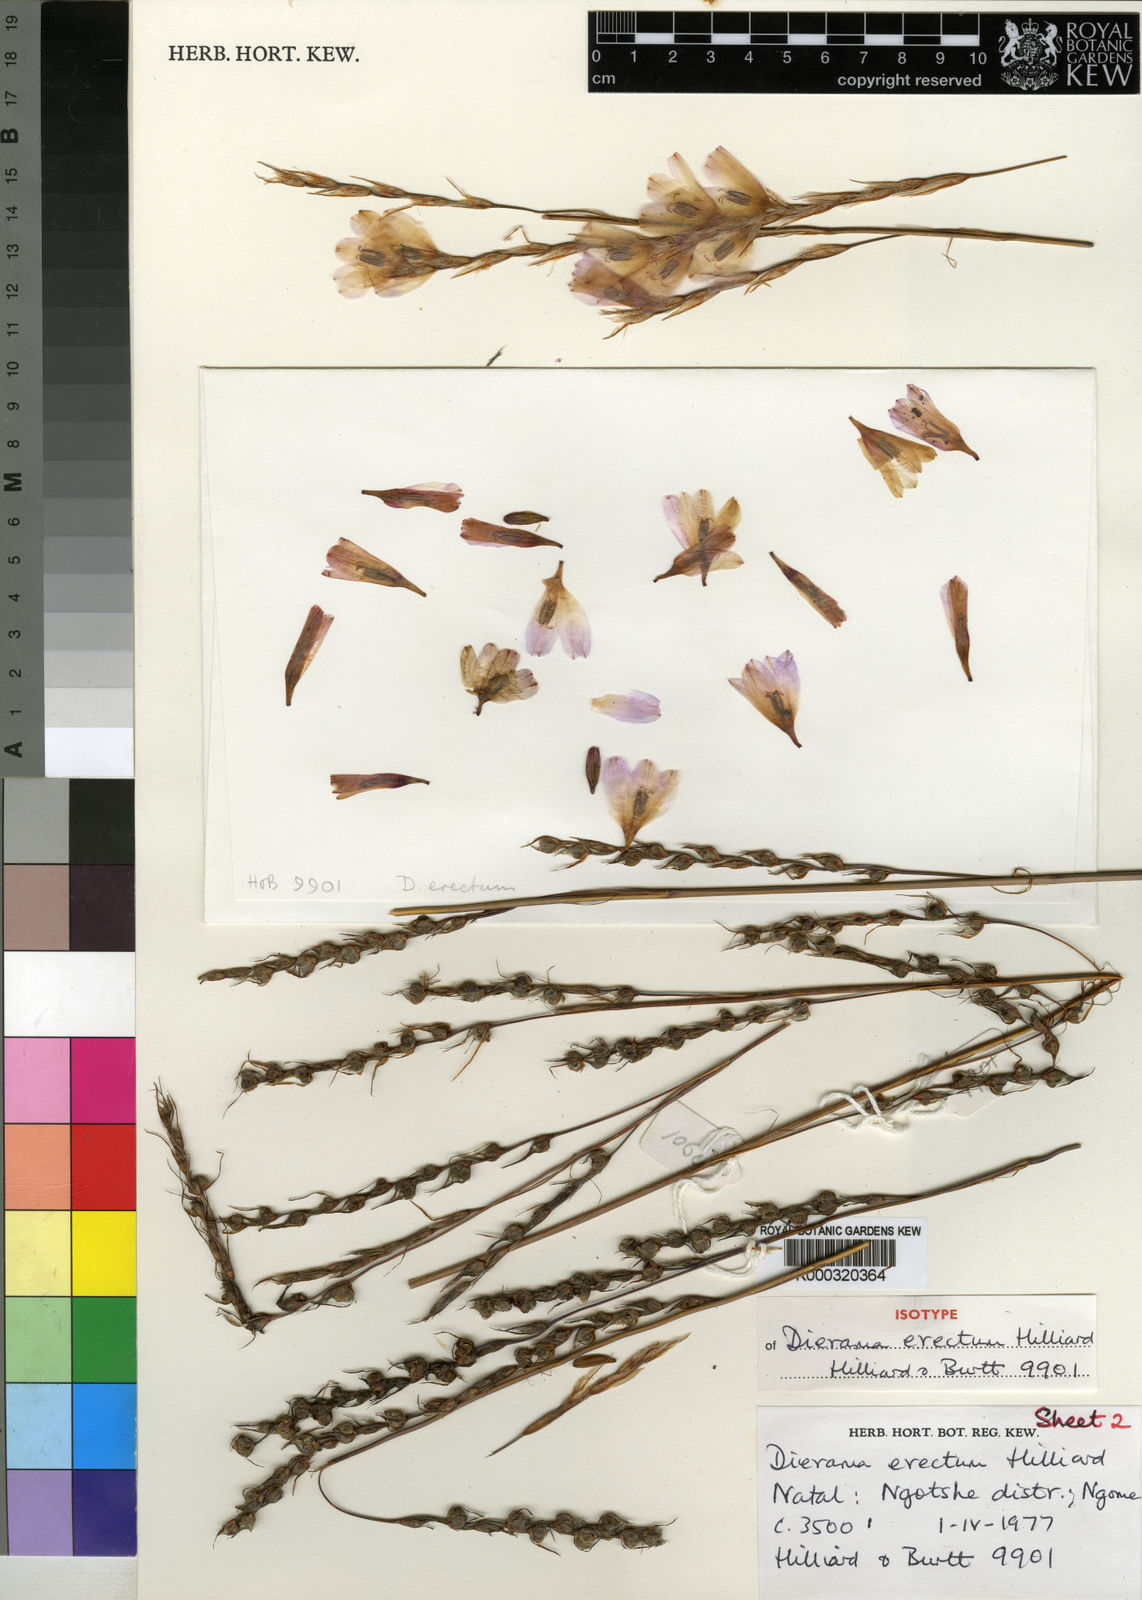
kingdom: Plantae
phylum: Tracheophyta
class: Liliopsida
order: Asparagales
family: Iridaceae
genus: Dierama
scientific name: Dierama erectum
